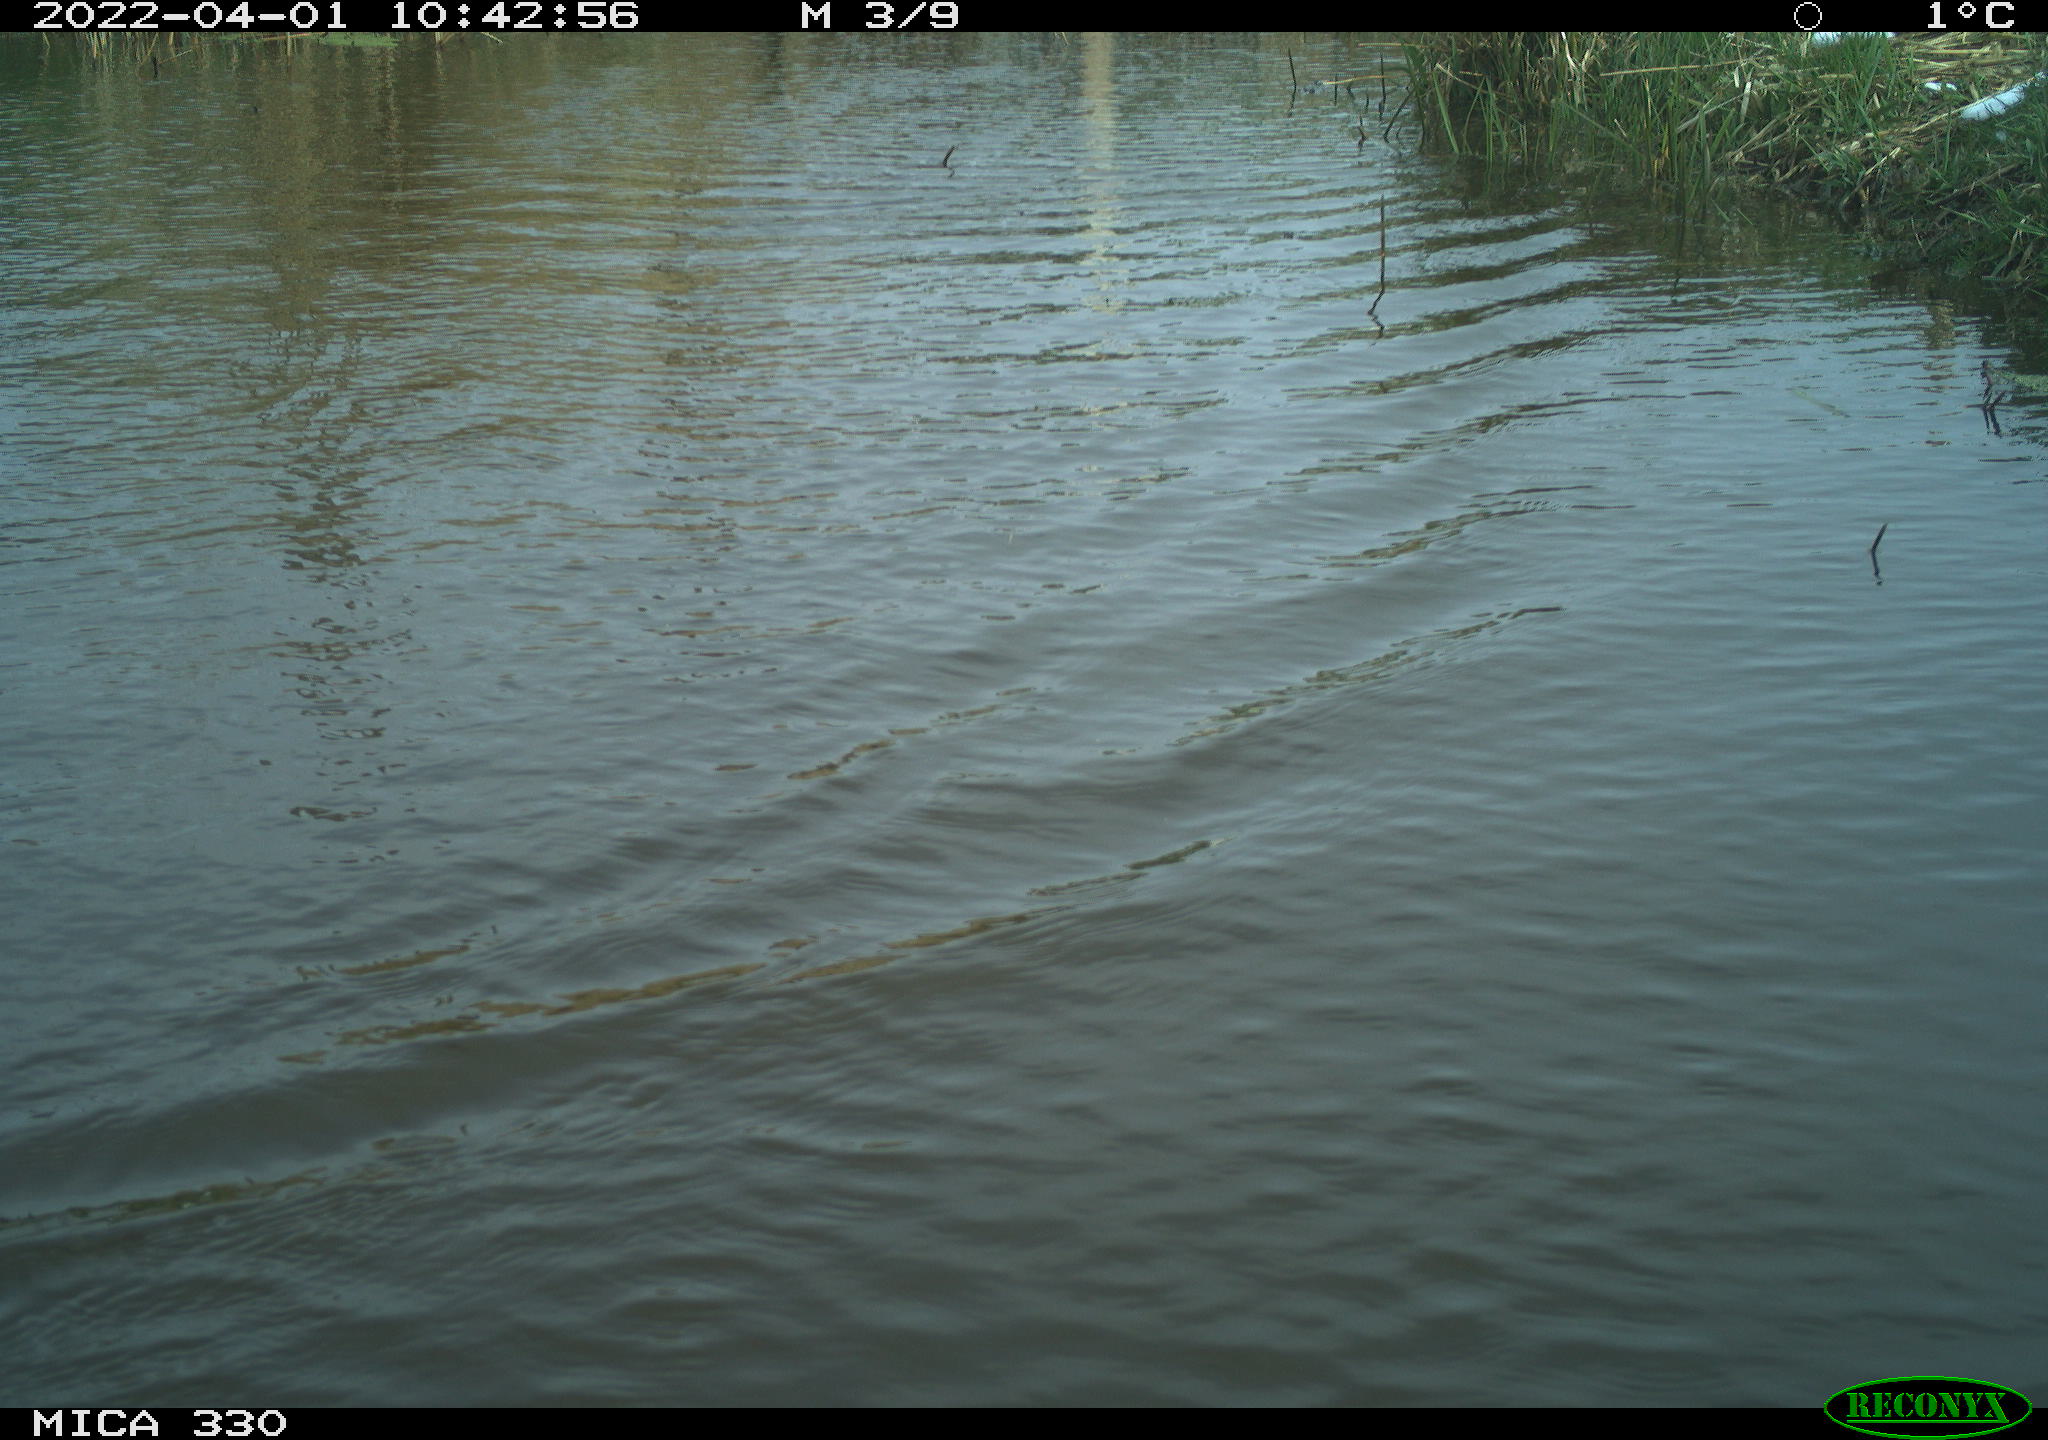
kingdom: Animalia
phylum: Chordata
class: Aves
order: Anseriformes
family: Anatidae
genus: Anas
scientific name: Anas platyrhynchos
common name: Mallard
